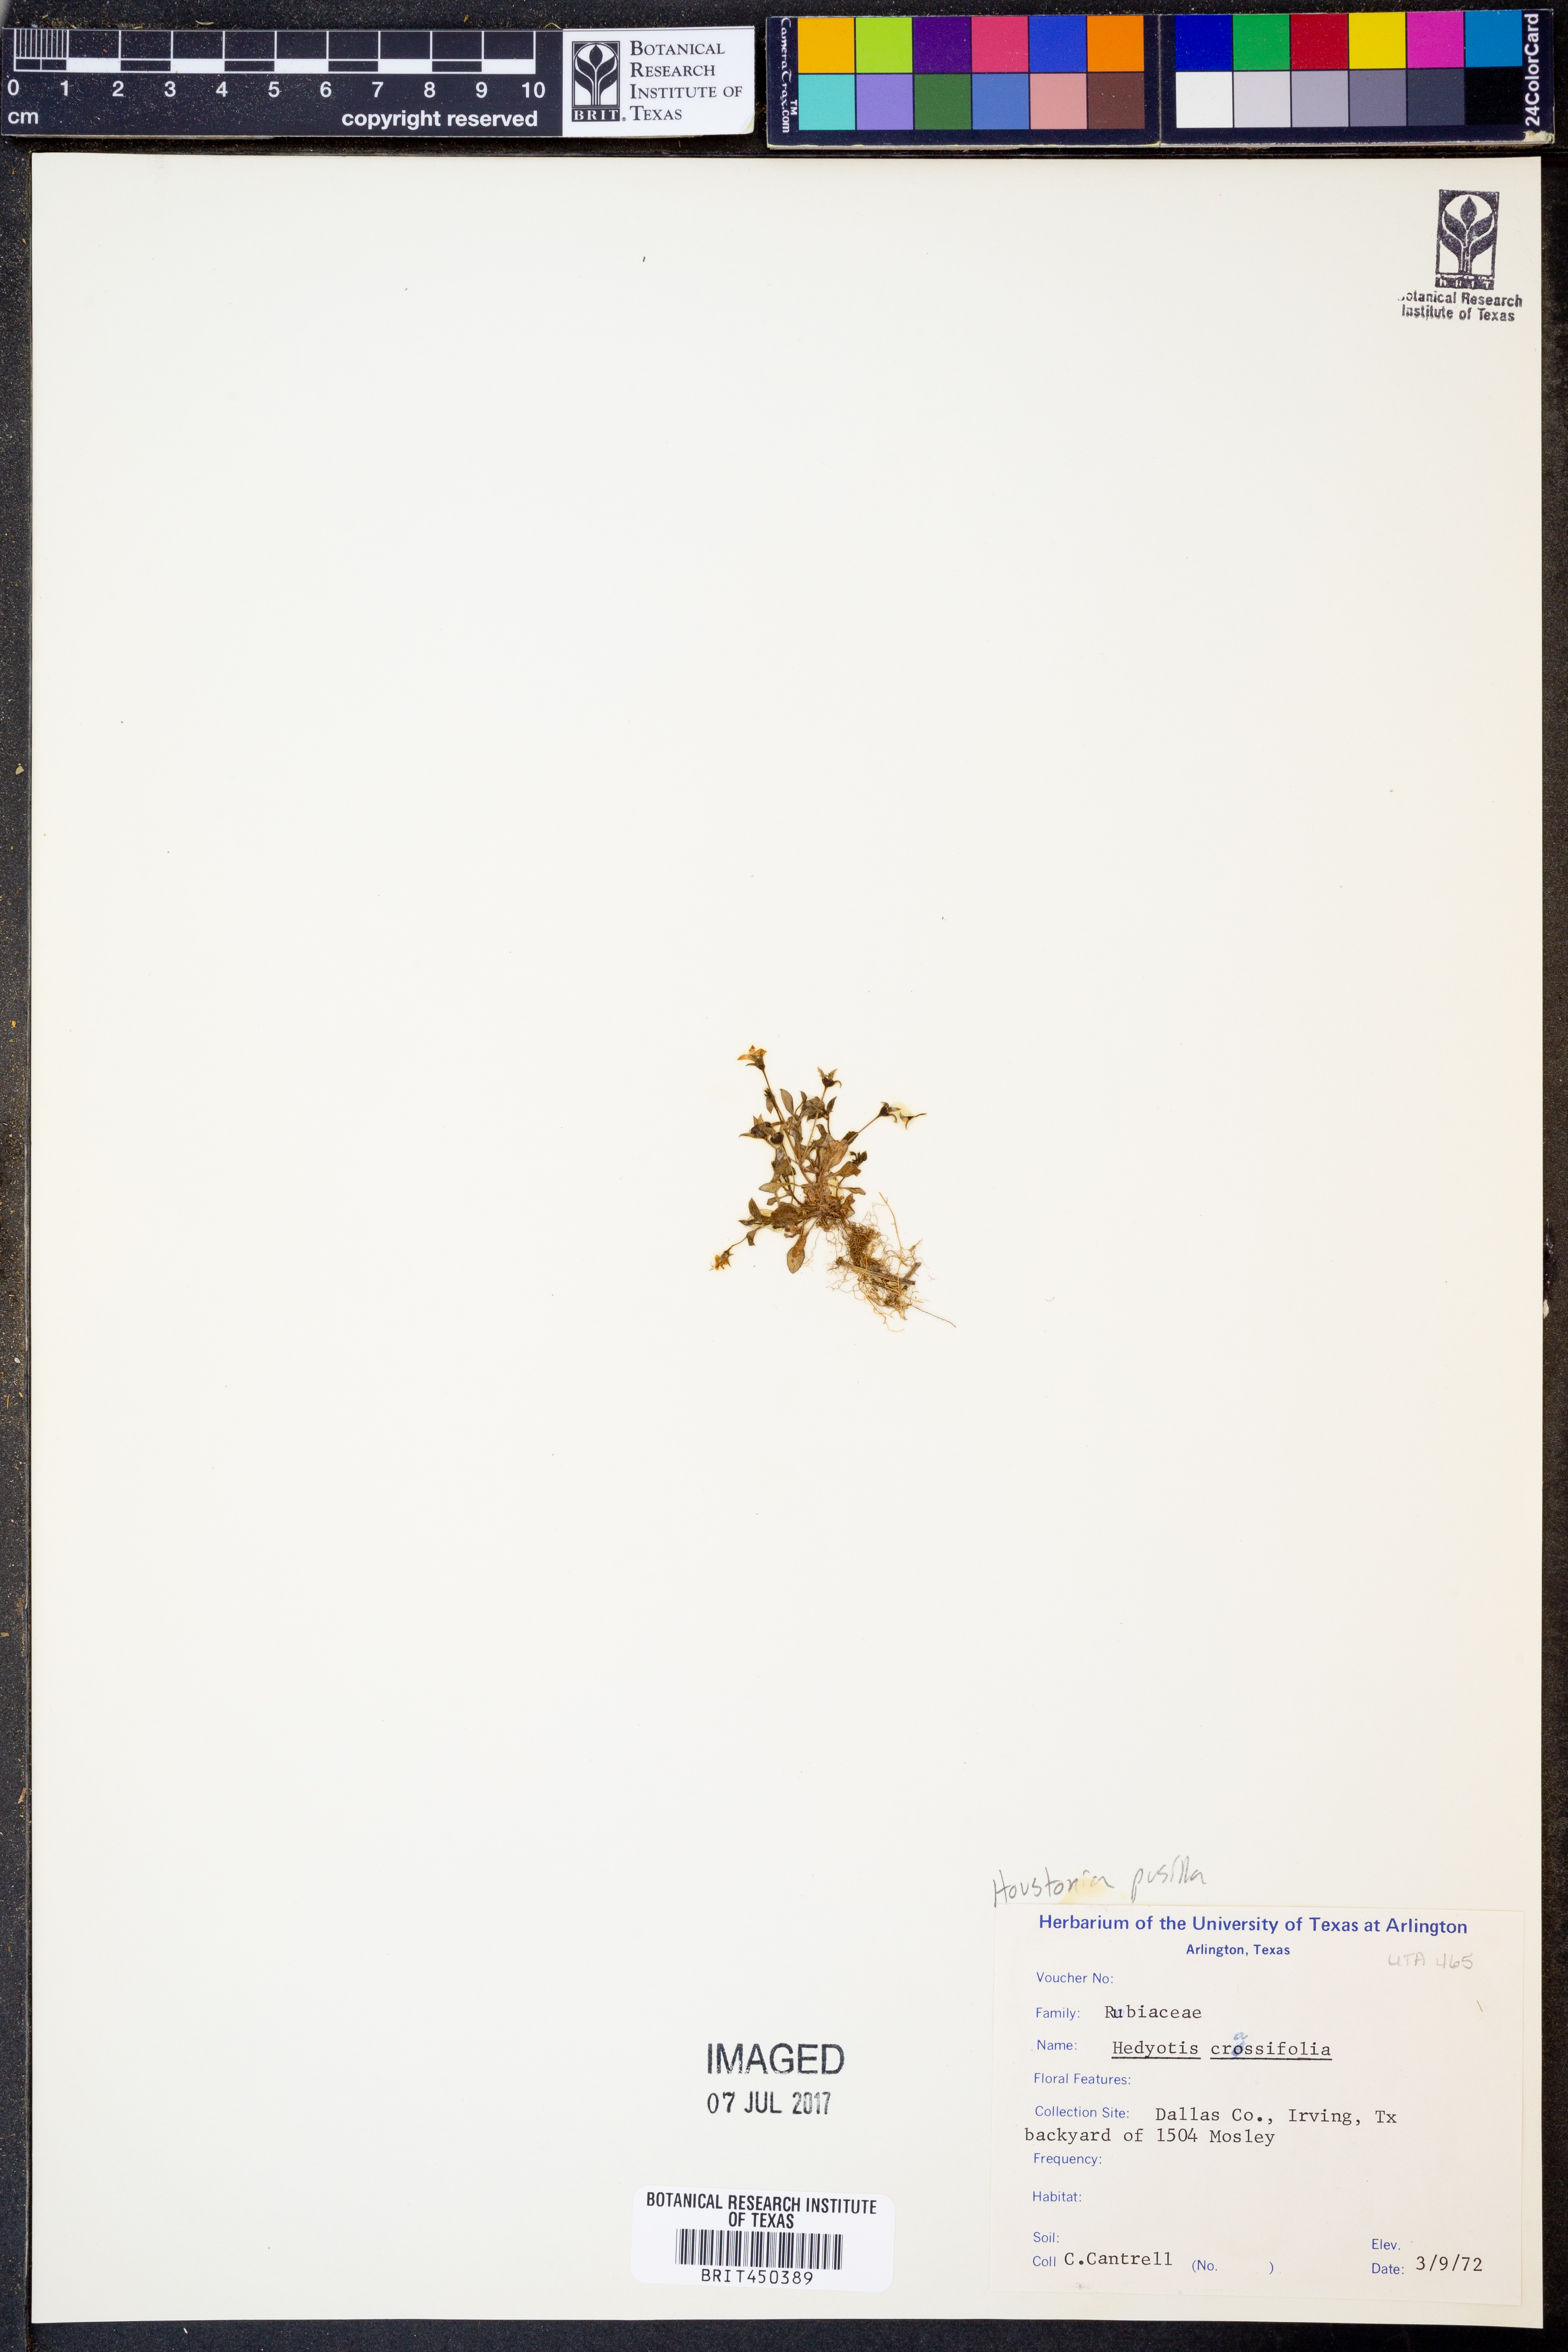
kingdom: Plantae
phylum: Tracheophyta
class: Magnoliopsida
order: Gentianales
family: Rubiaceae
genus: Oldenlandia
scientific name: Oldenlandia corymbosa
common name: Flat-top mille graines
